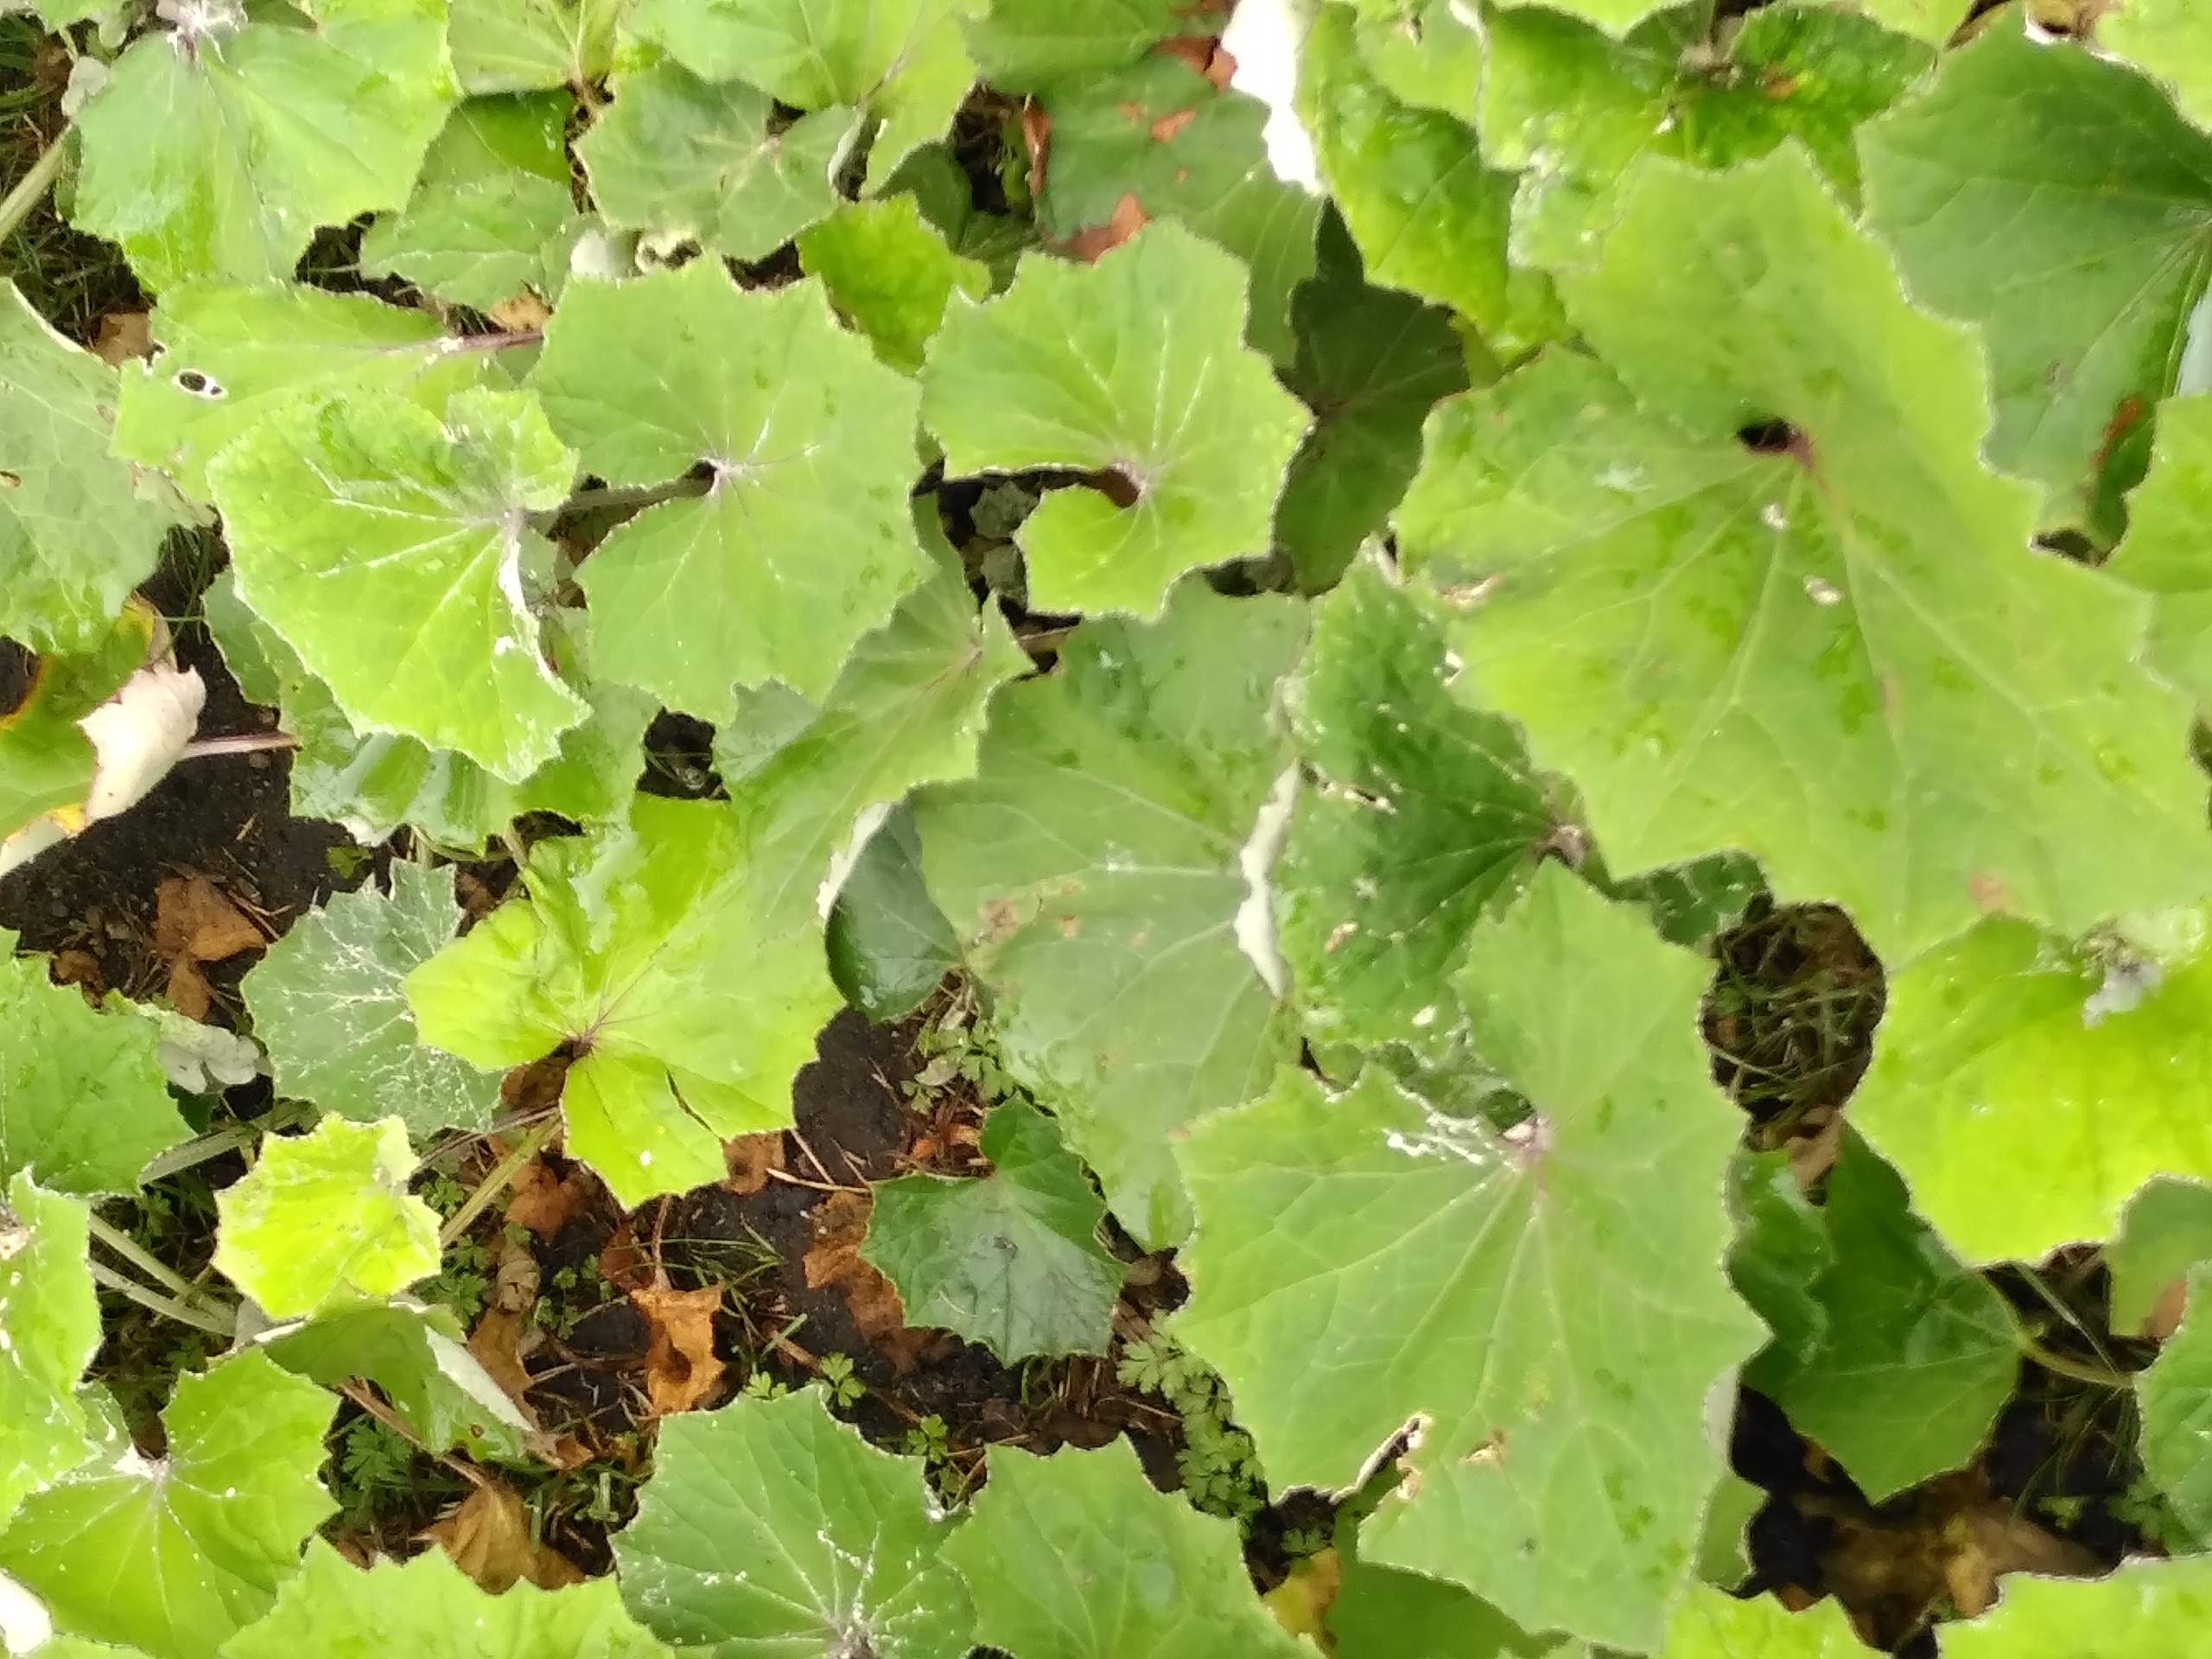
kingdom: Plantae
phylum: Tracheophyta
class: Magnoliopsida
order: Asterales
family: Asteraceae
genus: Tussilago
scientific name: Tussilago farfara
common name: Følfod
